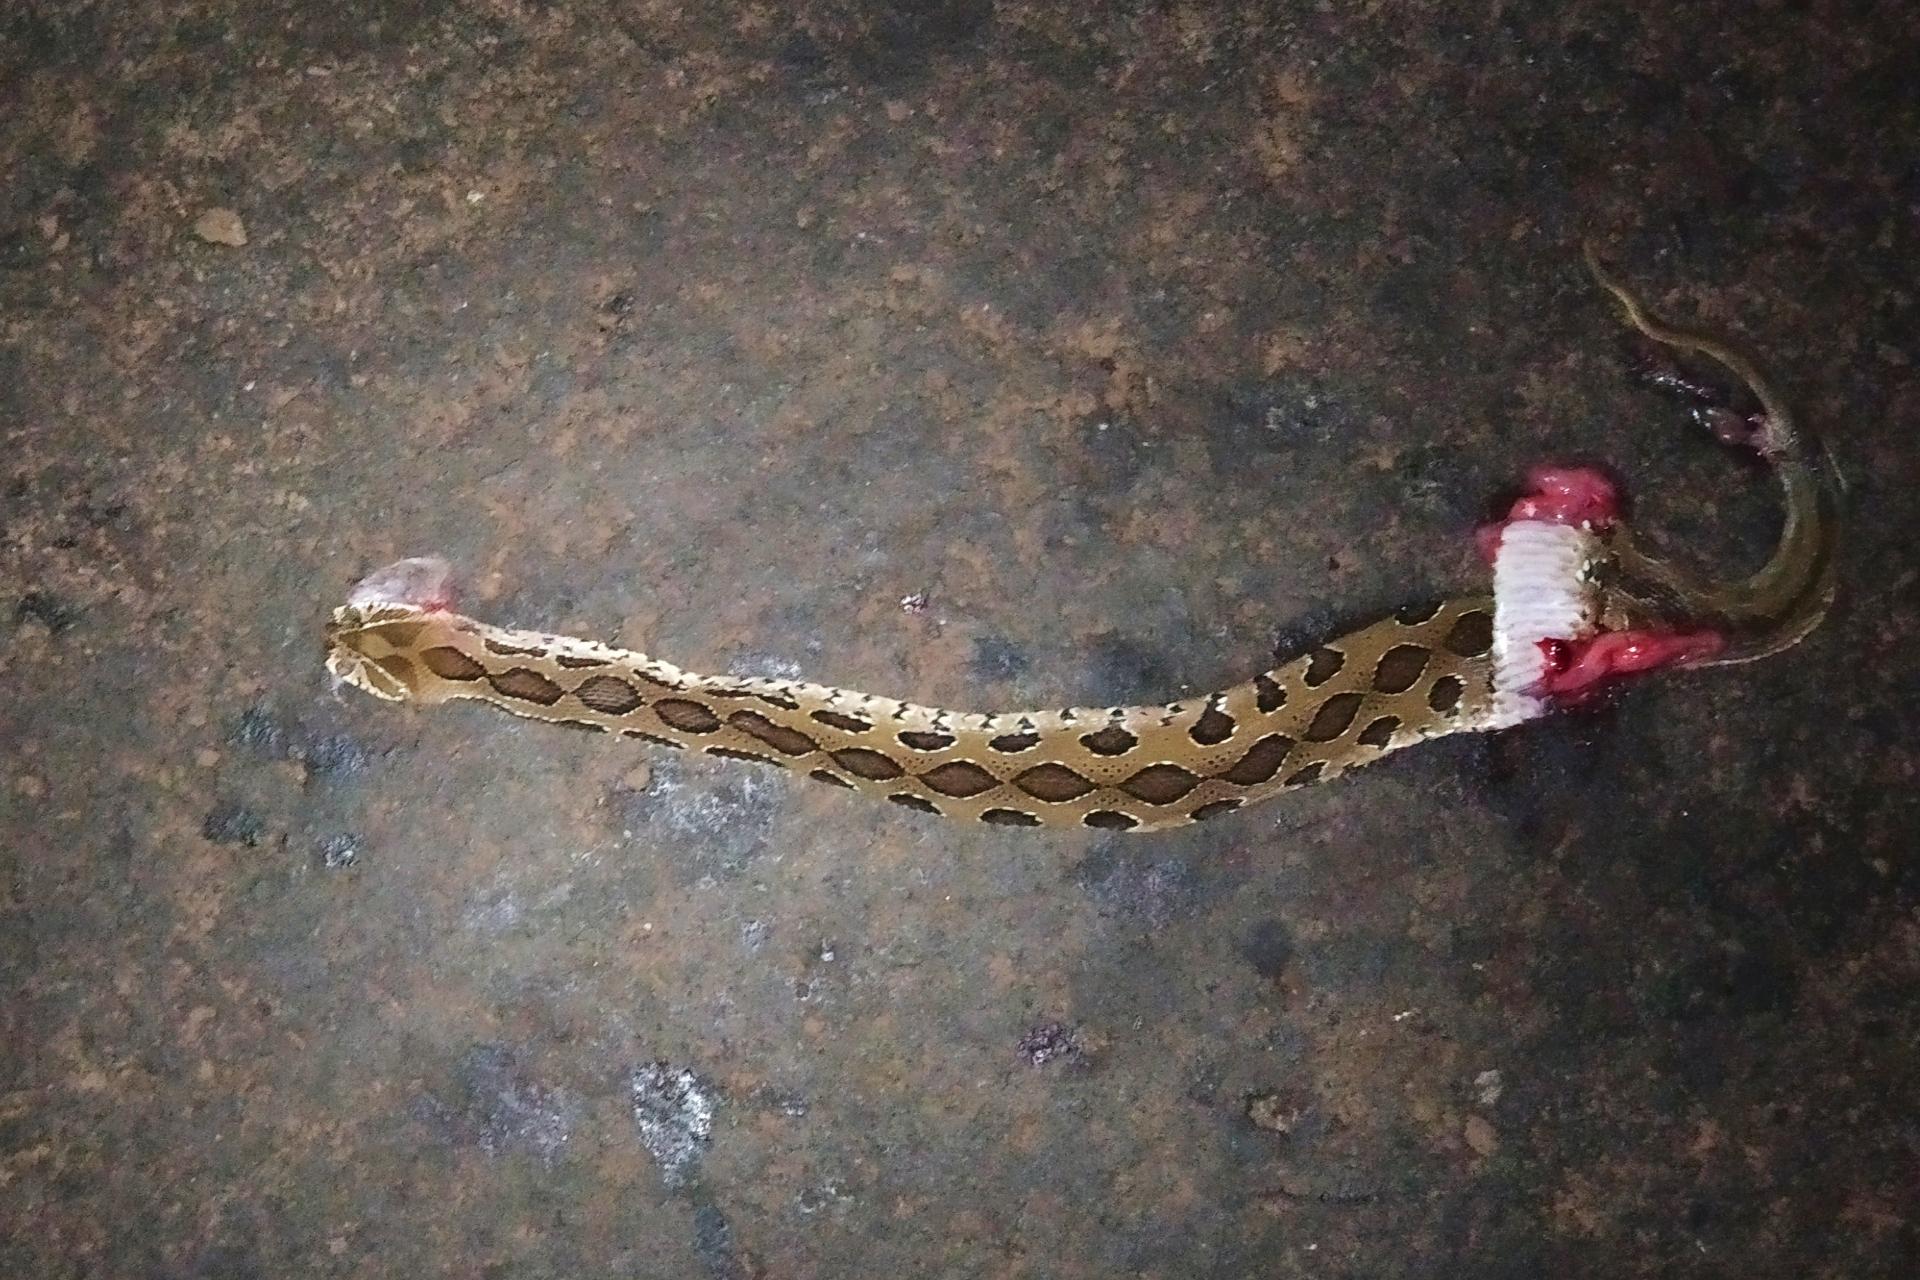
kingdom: Animalia
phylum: Chordata
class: Squamata
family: Viperidae
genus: Daboia
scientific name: Daboia russelii
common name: Western russel’s viper
